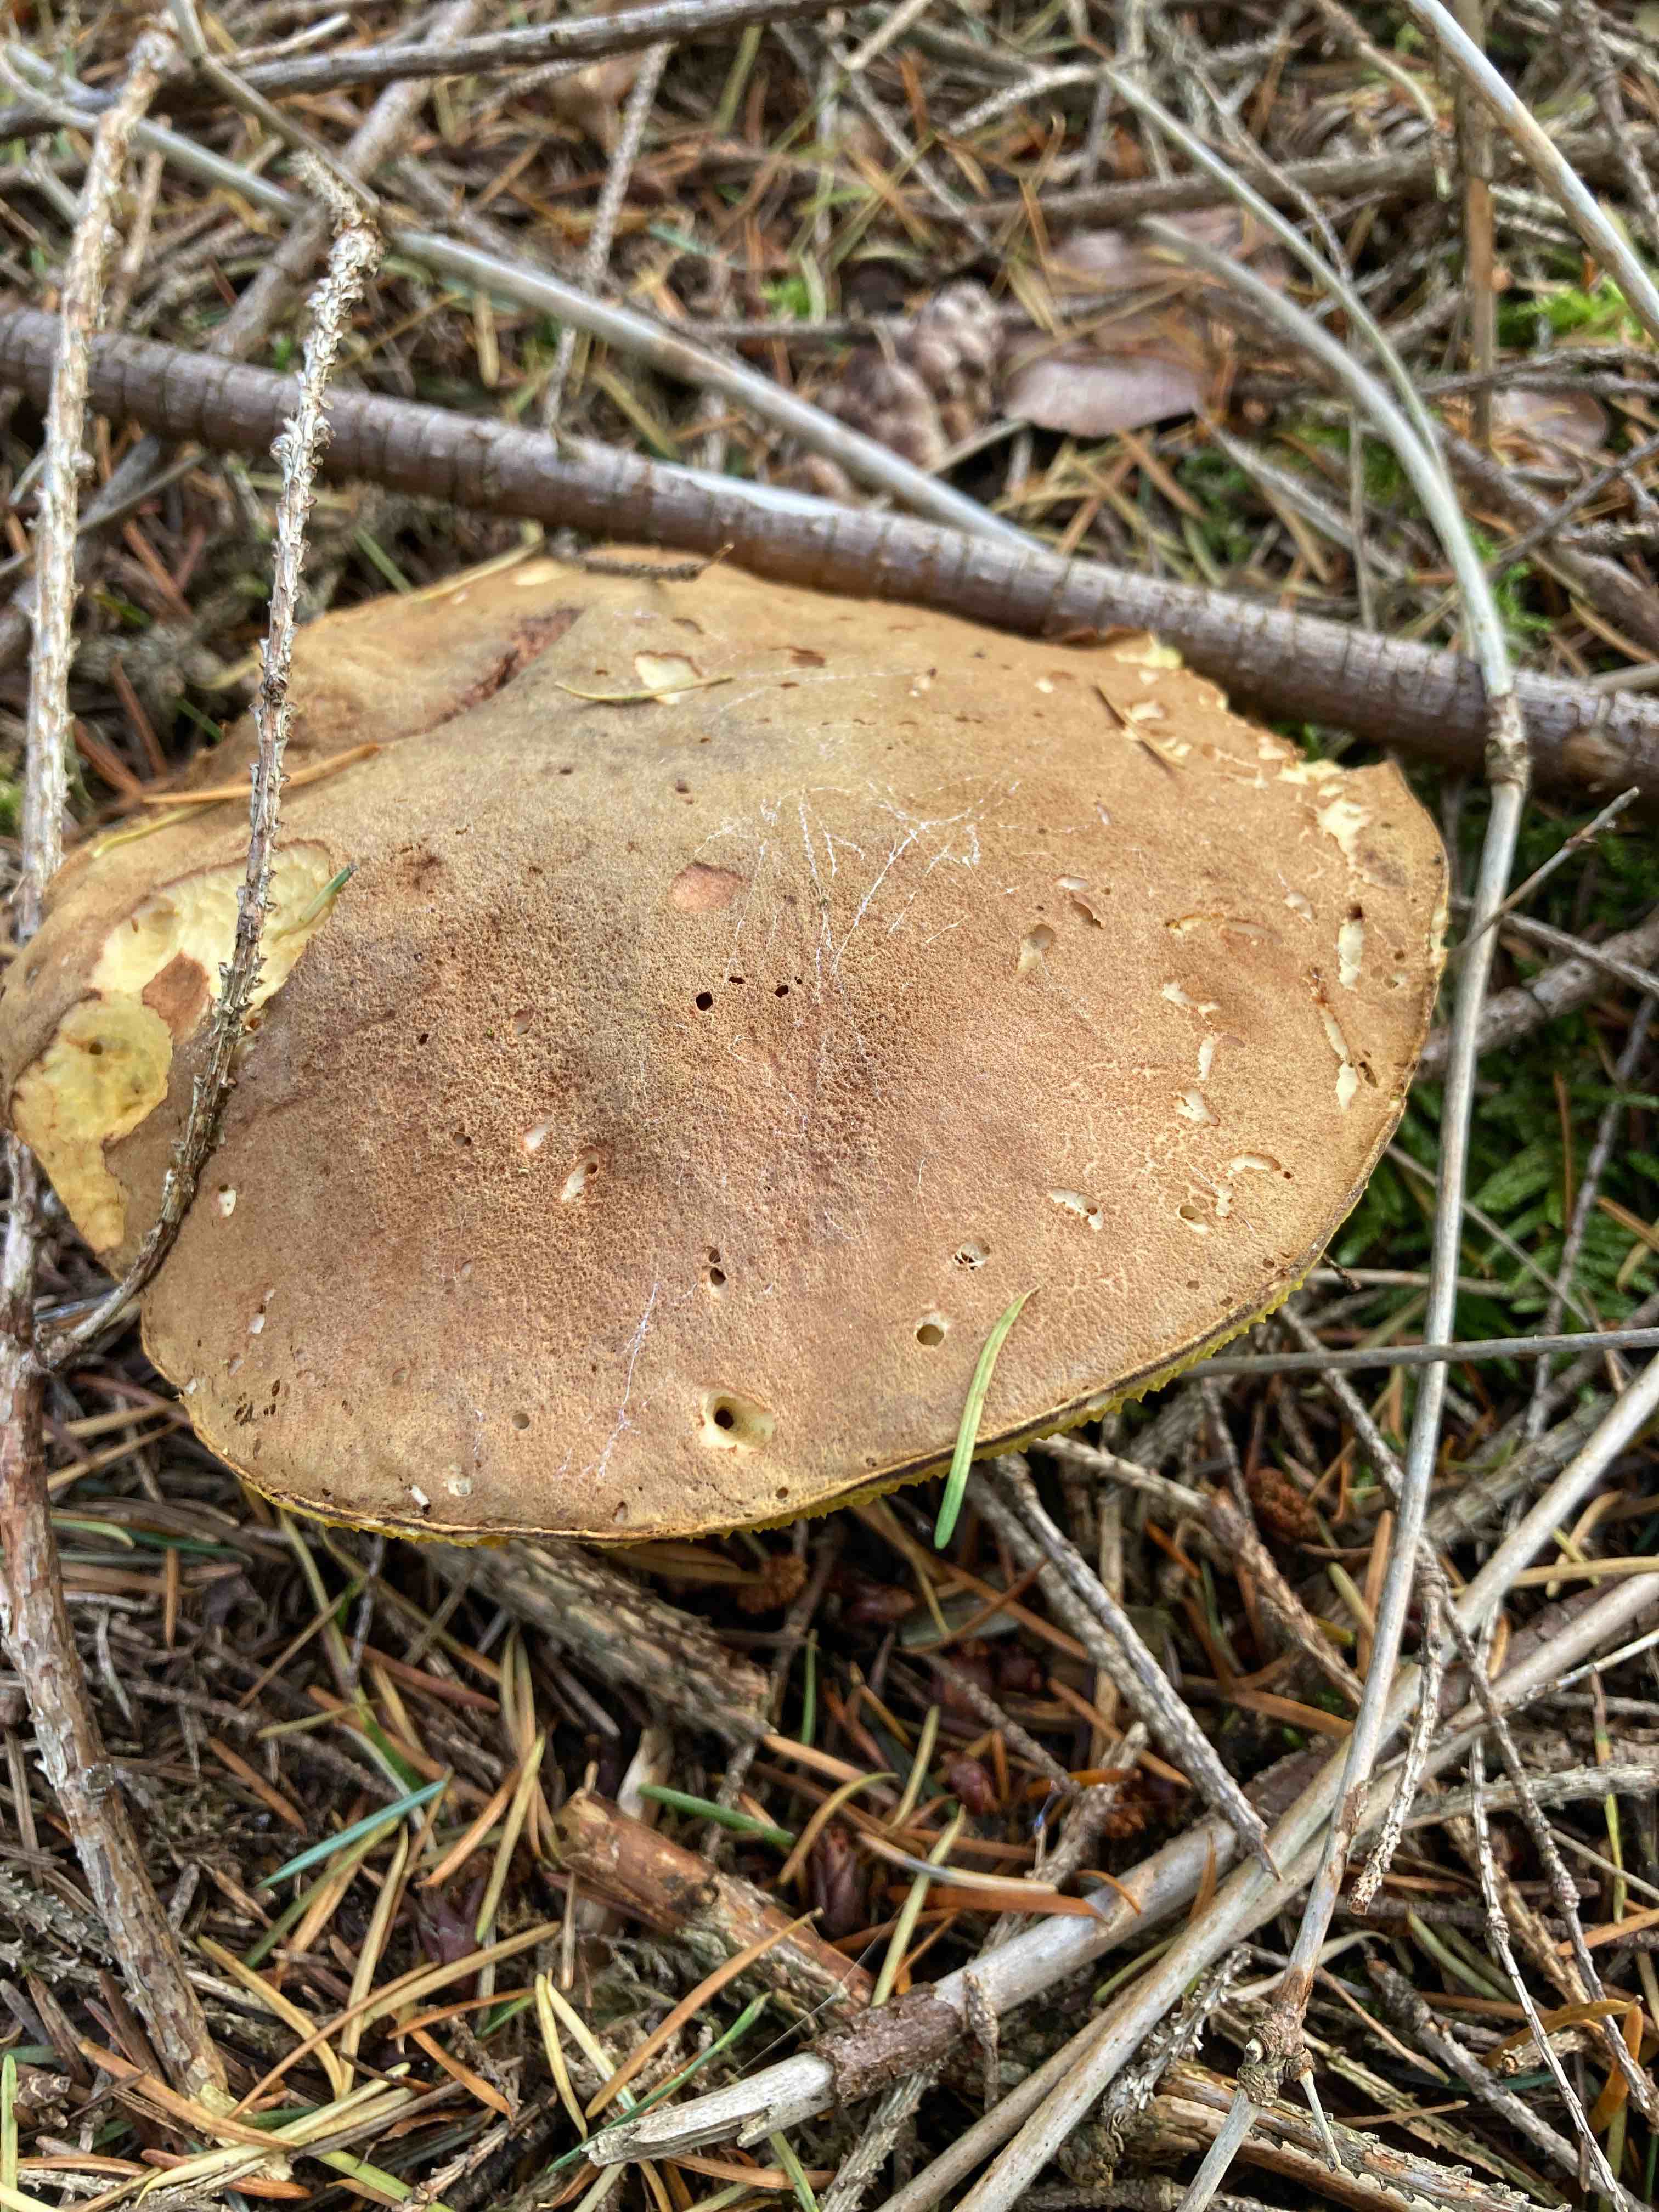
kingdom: Fungi
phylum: Basidiomycota
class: Agaricomycetes
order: Boletales
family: Boletaceae
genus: Xerocomus
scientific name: Xerocomus
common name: filtrørhat
